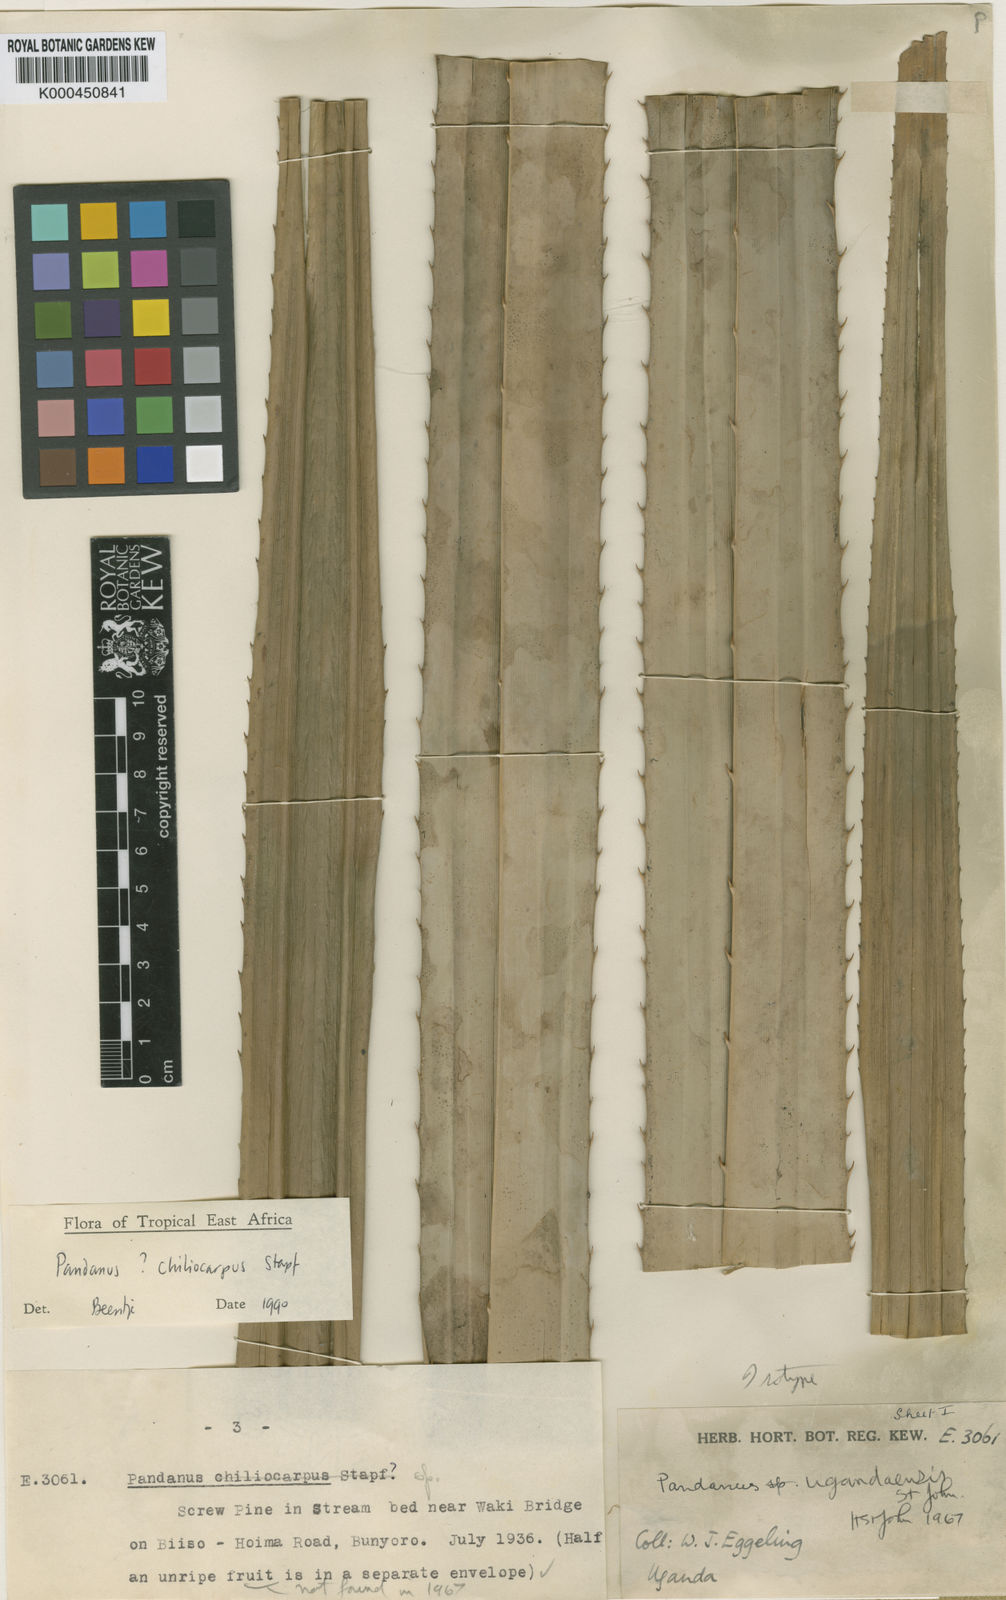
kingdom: Plantae
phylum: Tracheophyta
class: Liliopsida
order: Pandanales
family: Pandanaceae
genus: Pandanus
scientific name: Pandanus chiliocarpus
